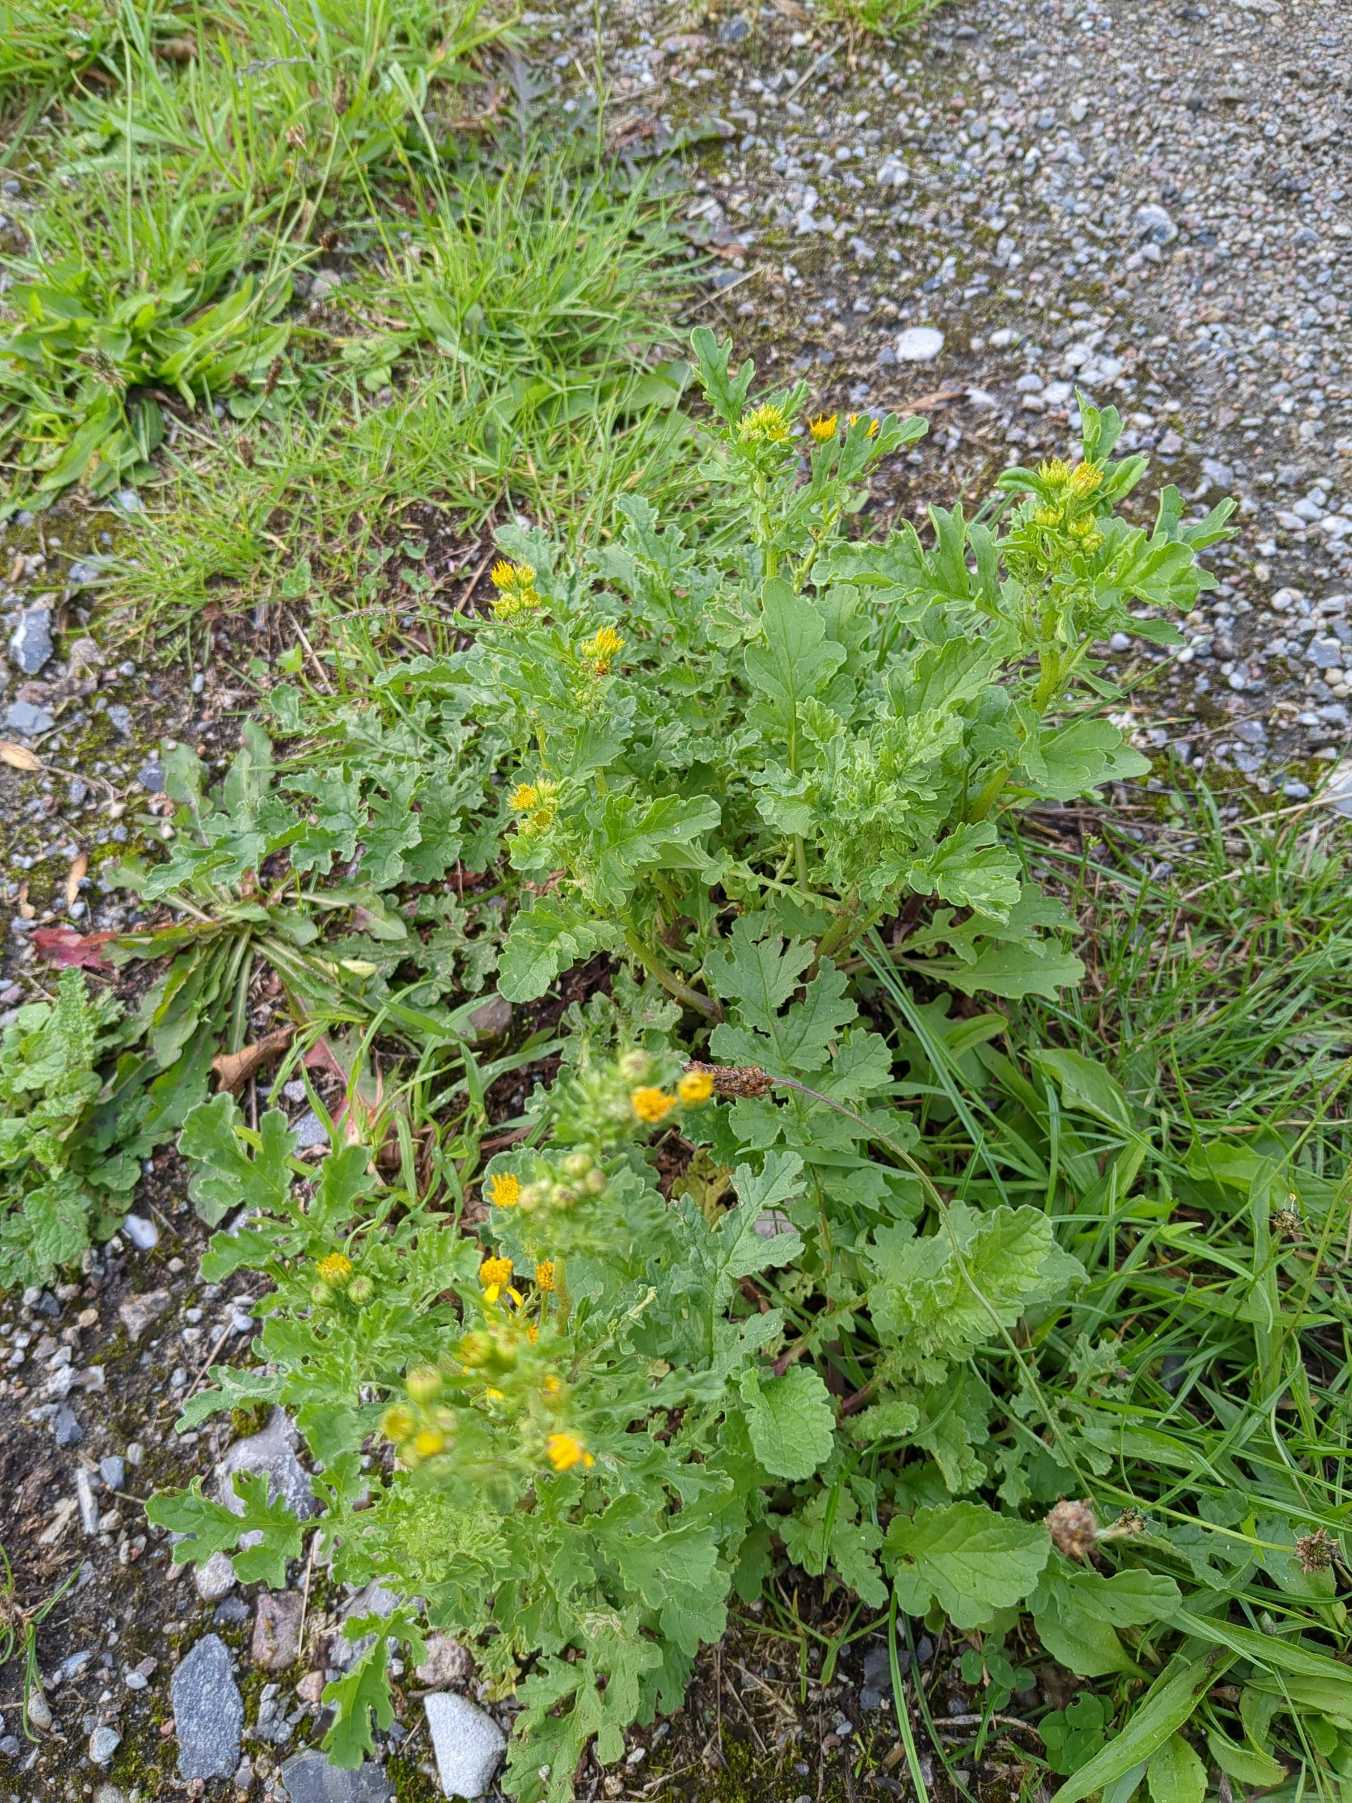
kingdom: Plantae
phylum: Tracheophyta
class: Magnoliopsida
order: Asterales
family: Asteraceae
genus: Jacobaea
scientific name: Jacobaea vulgaris
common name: Eng-brandbæger
